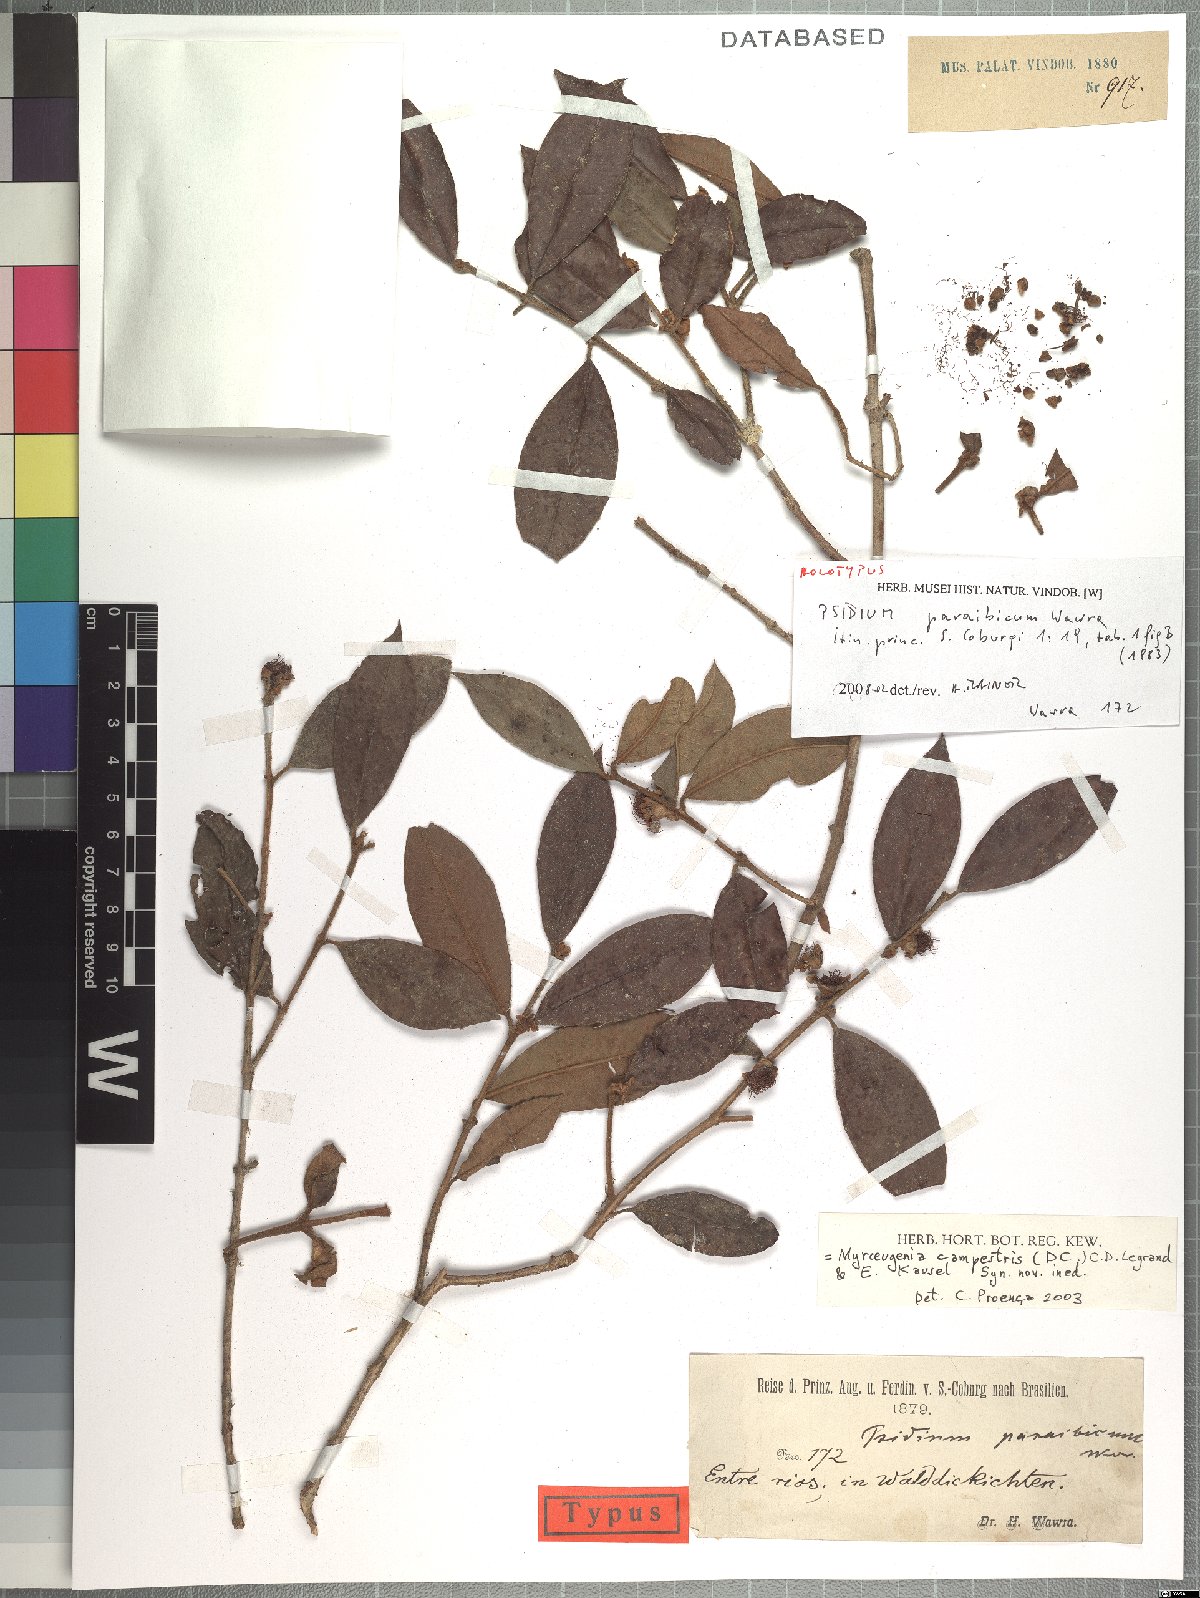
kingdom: Plantae
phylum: Tracheophyta
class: Magnoliopsida
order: Myrtales
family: Myrtaceae
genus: Myrceugenia
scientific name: Myrceugenia campestris
